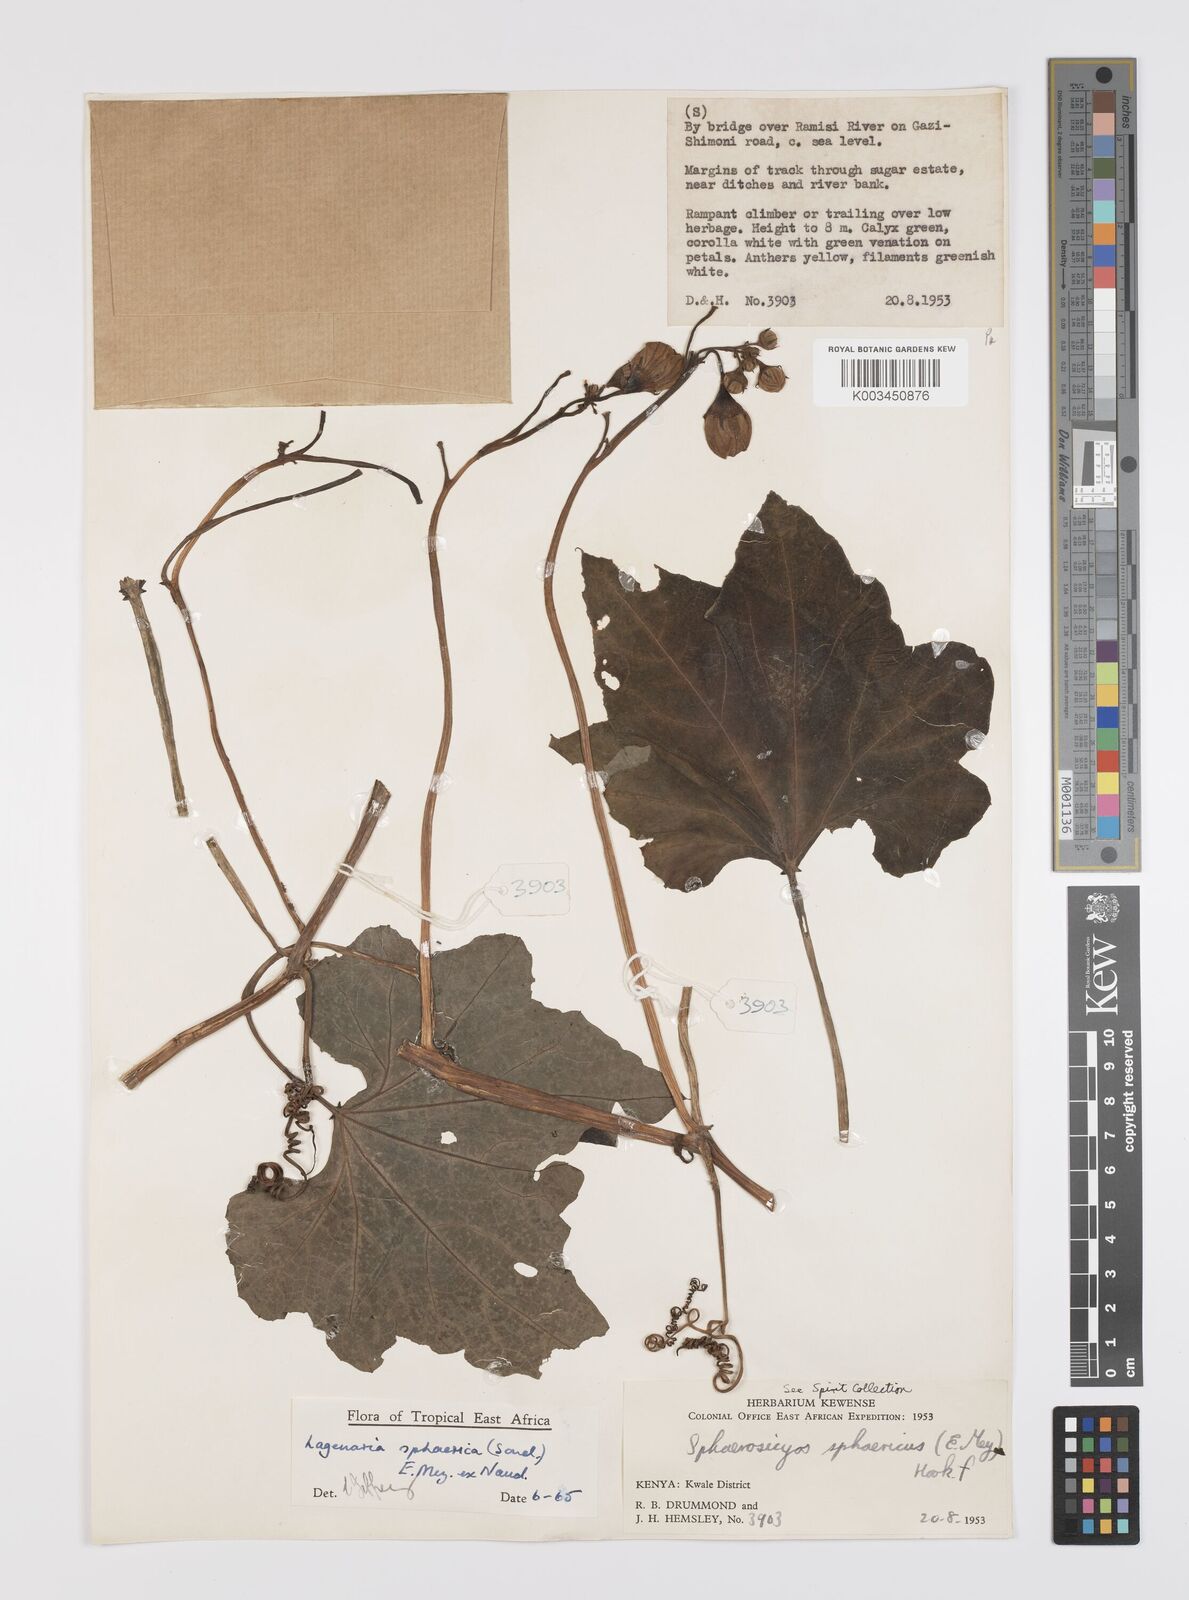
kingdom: Plantae
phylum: Tracheophyta
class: Magnoliopsida
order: Cucurbitales
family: Cucurbitaceae
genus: Lagenaria
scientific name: Lagenaria sphaerica
